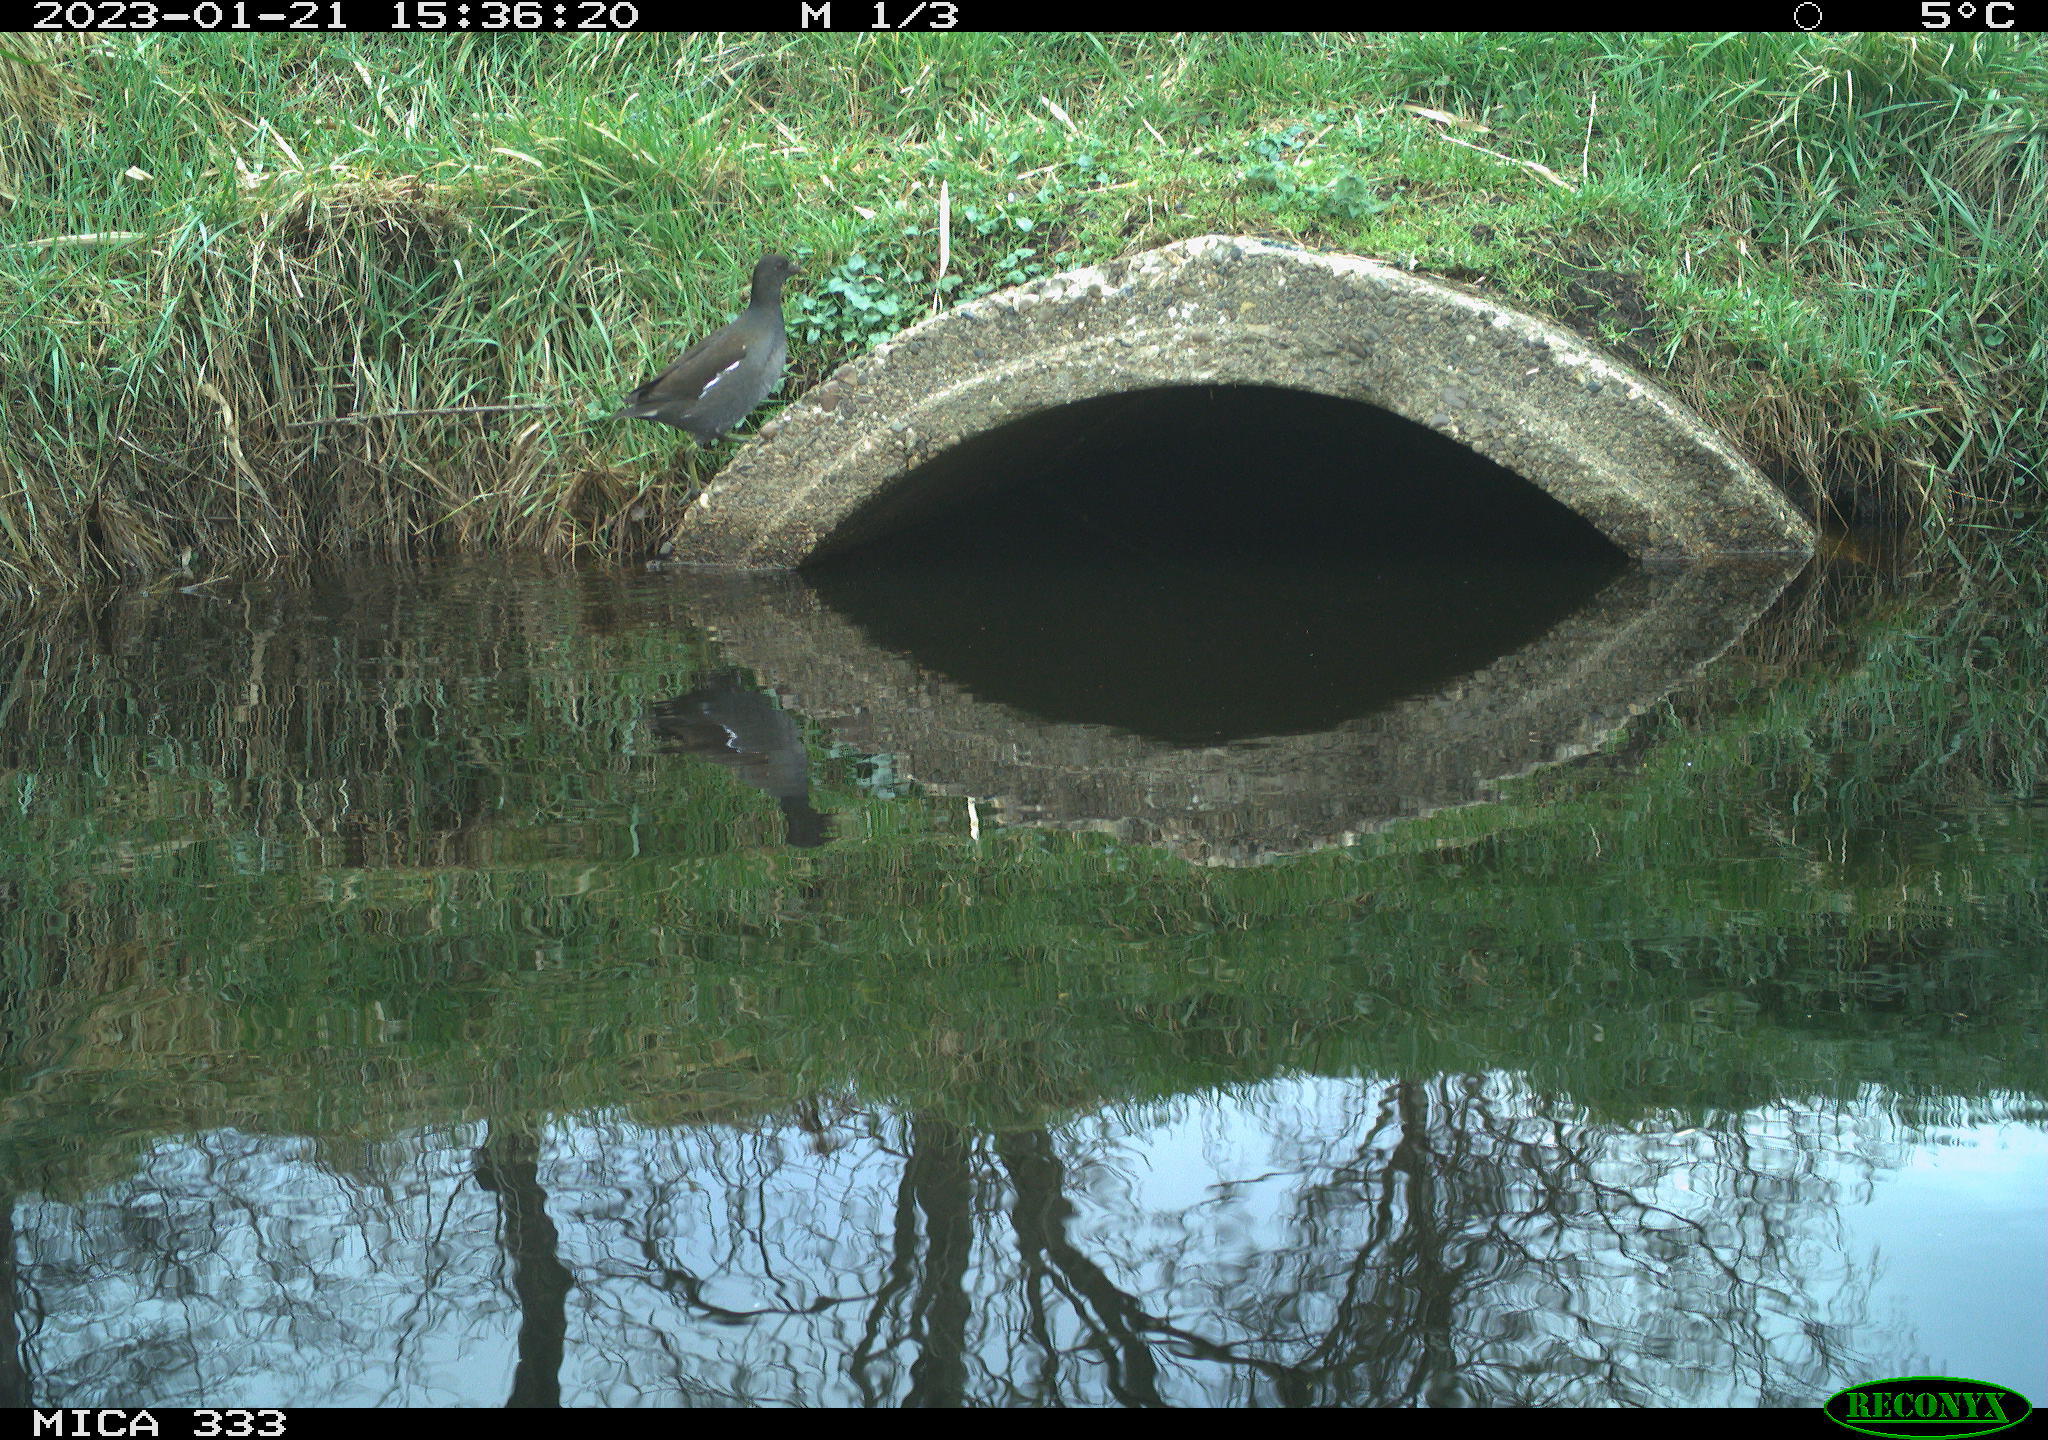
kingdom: Animalia
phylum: Chordata
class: Aves
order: Gruiformes
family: Rallidae
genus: Gallinula
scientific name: Gallinula chloropus
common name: Common moorhen
